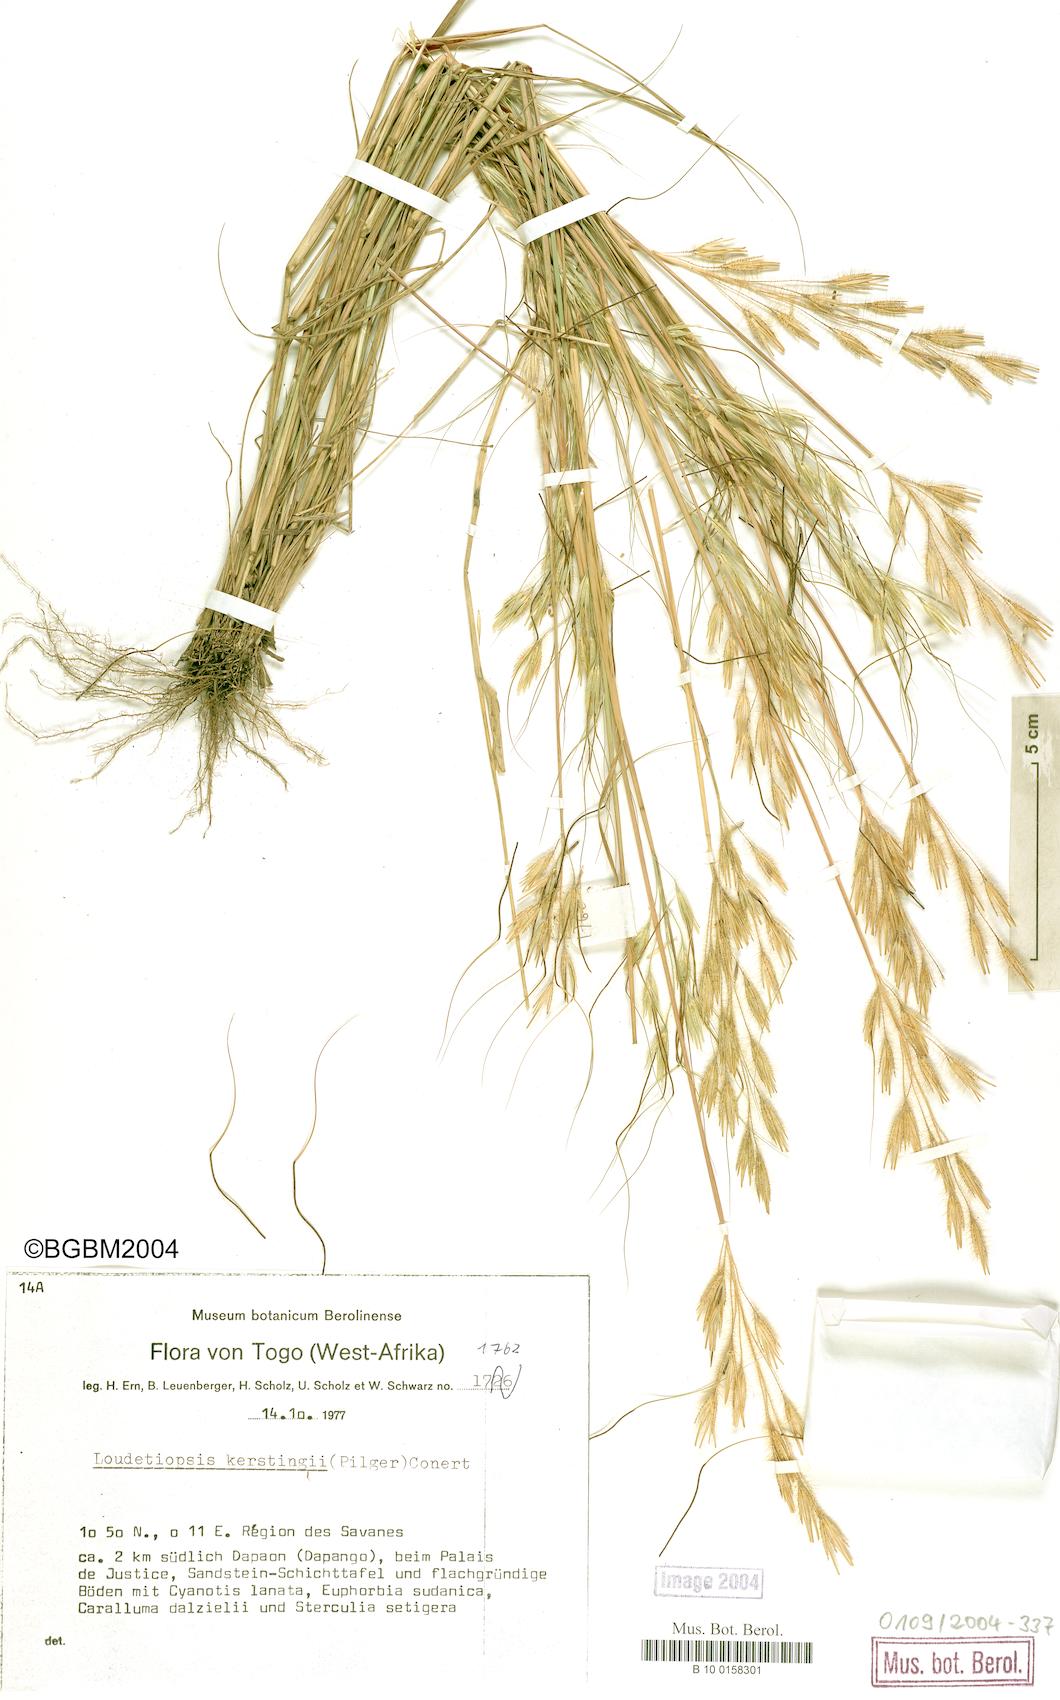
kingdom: Plantae
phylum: Tracheophyta
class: Liliopsida
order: Poales
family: Poaceae
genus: Loudetiopsis
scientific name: Loudetiopsis kerstingii
